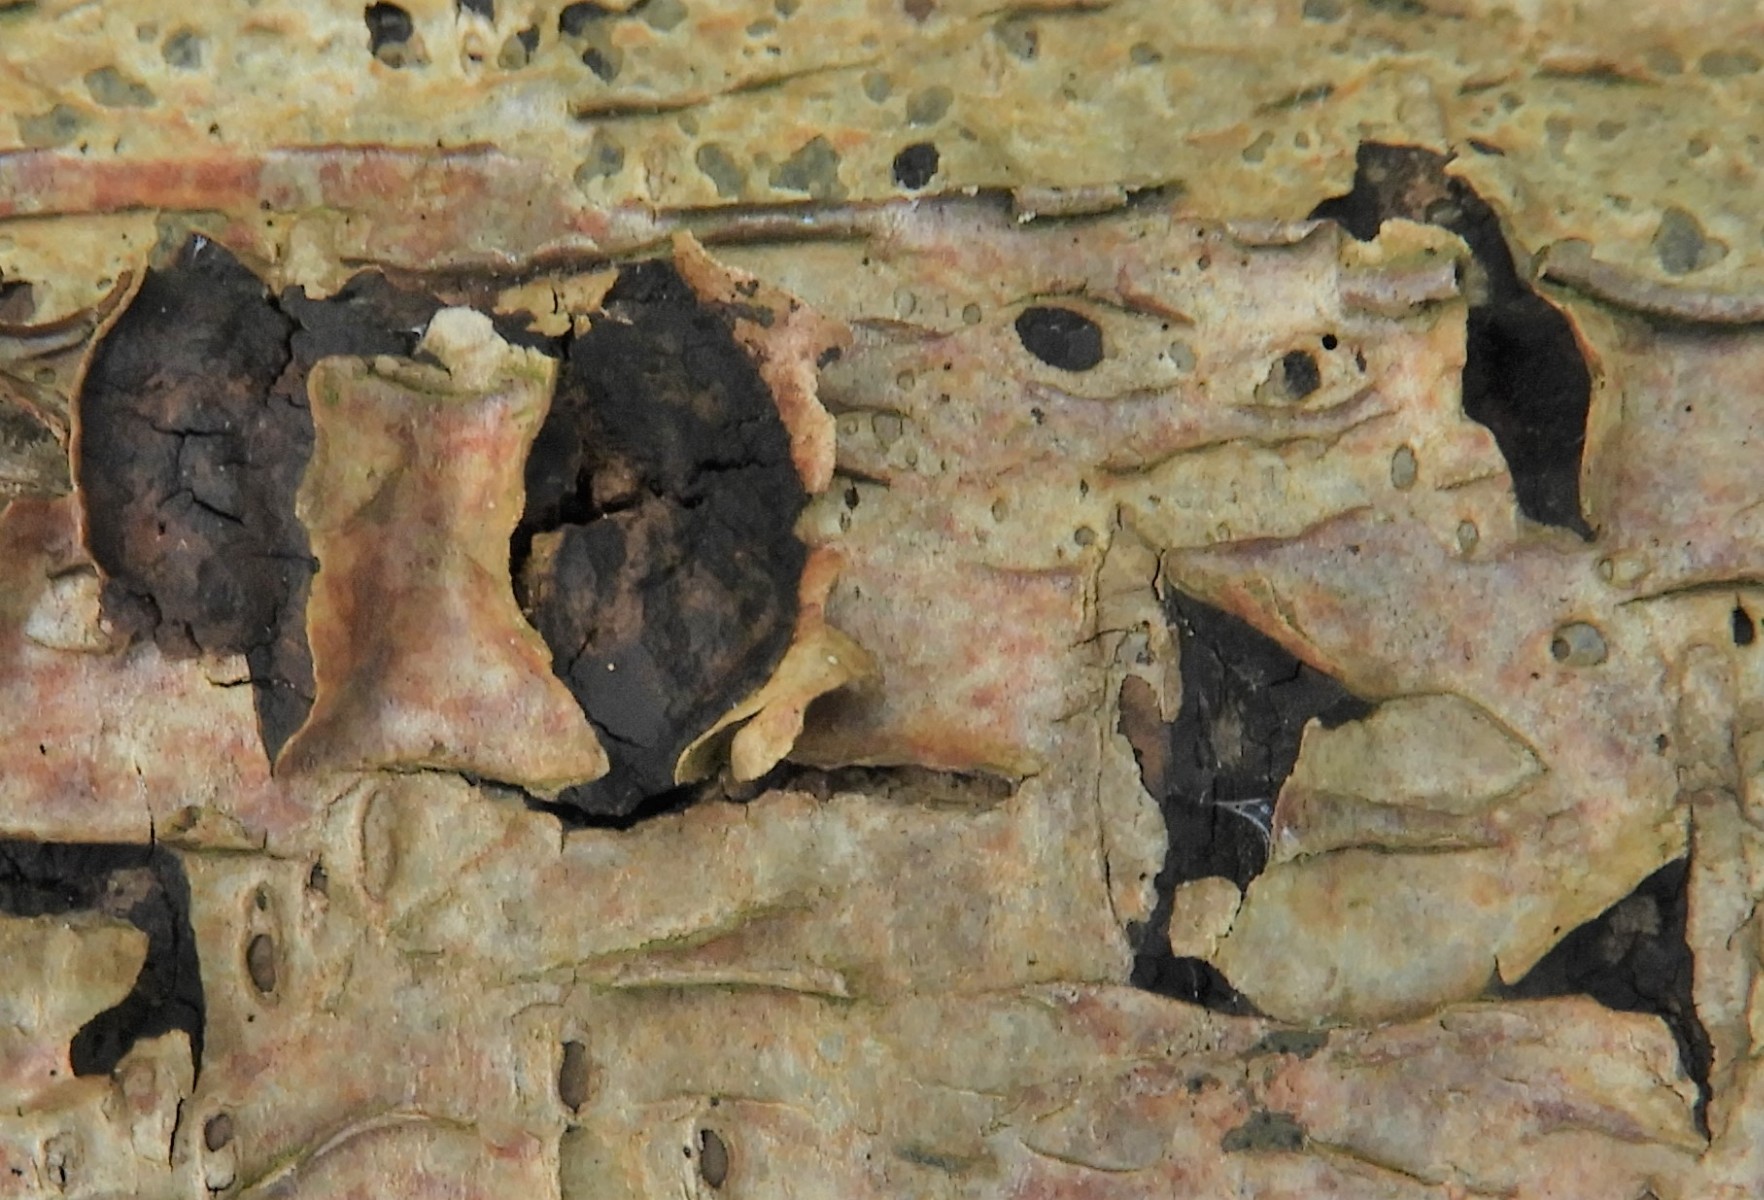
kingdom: Fungi
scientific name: Fungi
